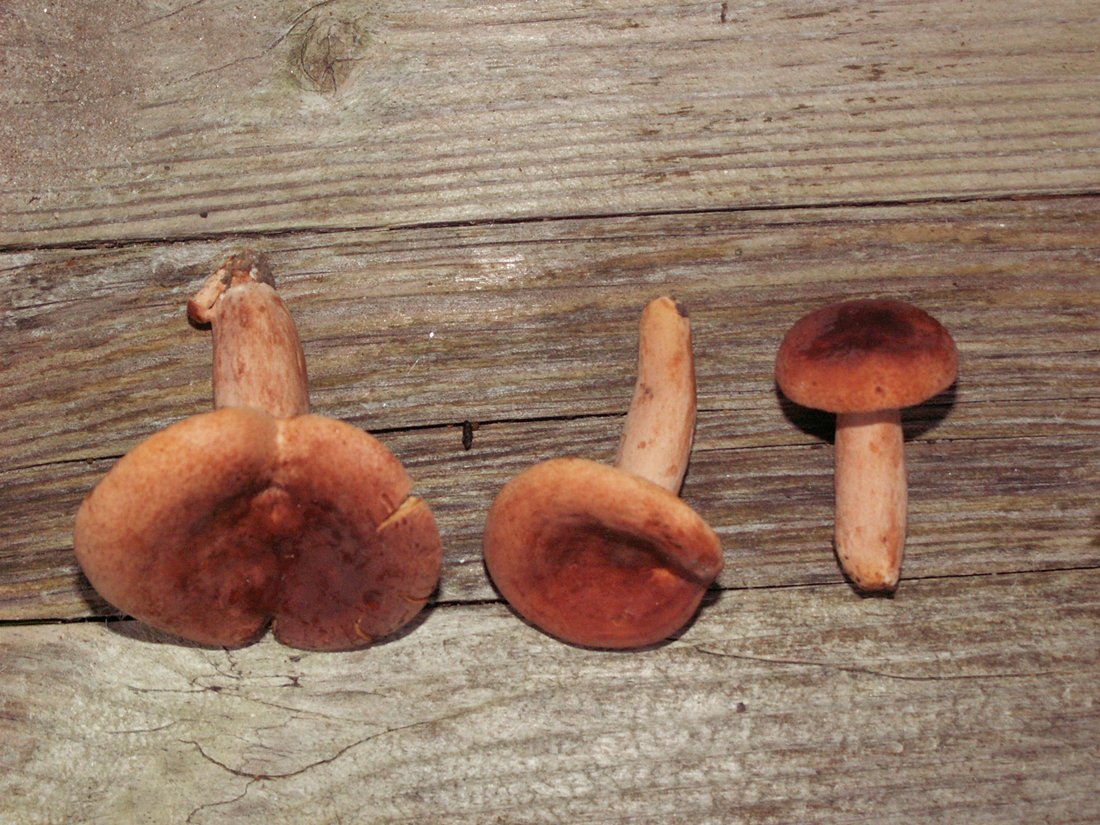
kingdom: Fungi
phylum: Basidiomycota
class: Agaricomycetes
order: Russulales
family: Russulaceae
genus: Lactarius
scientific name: Lactarius fulvissimus
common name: ræve-mælkehat
